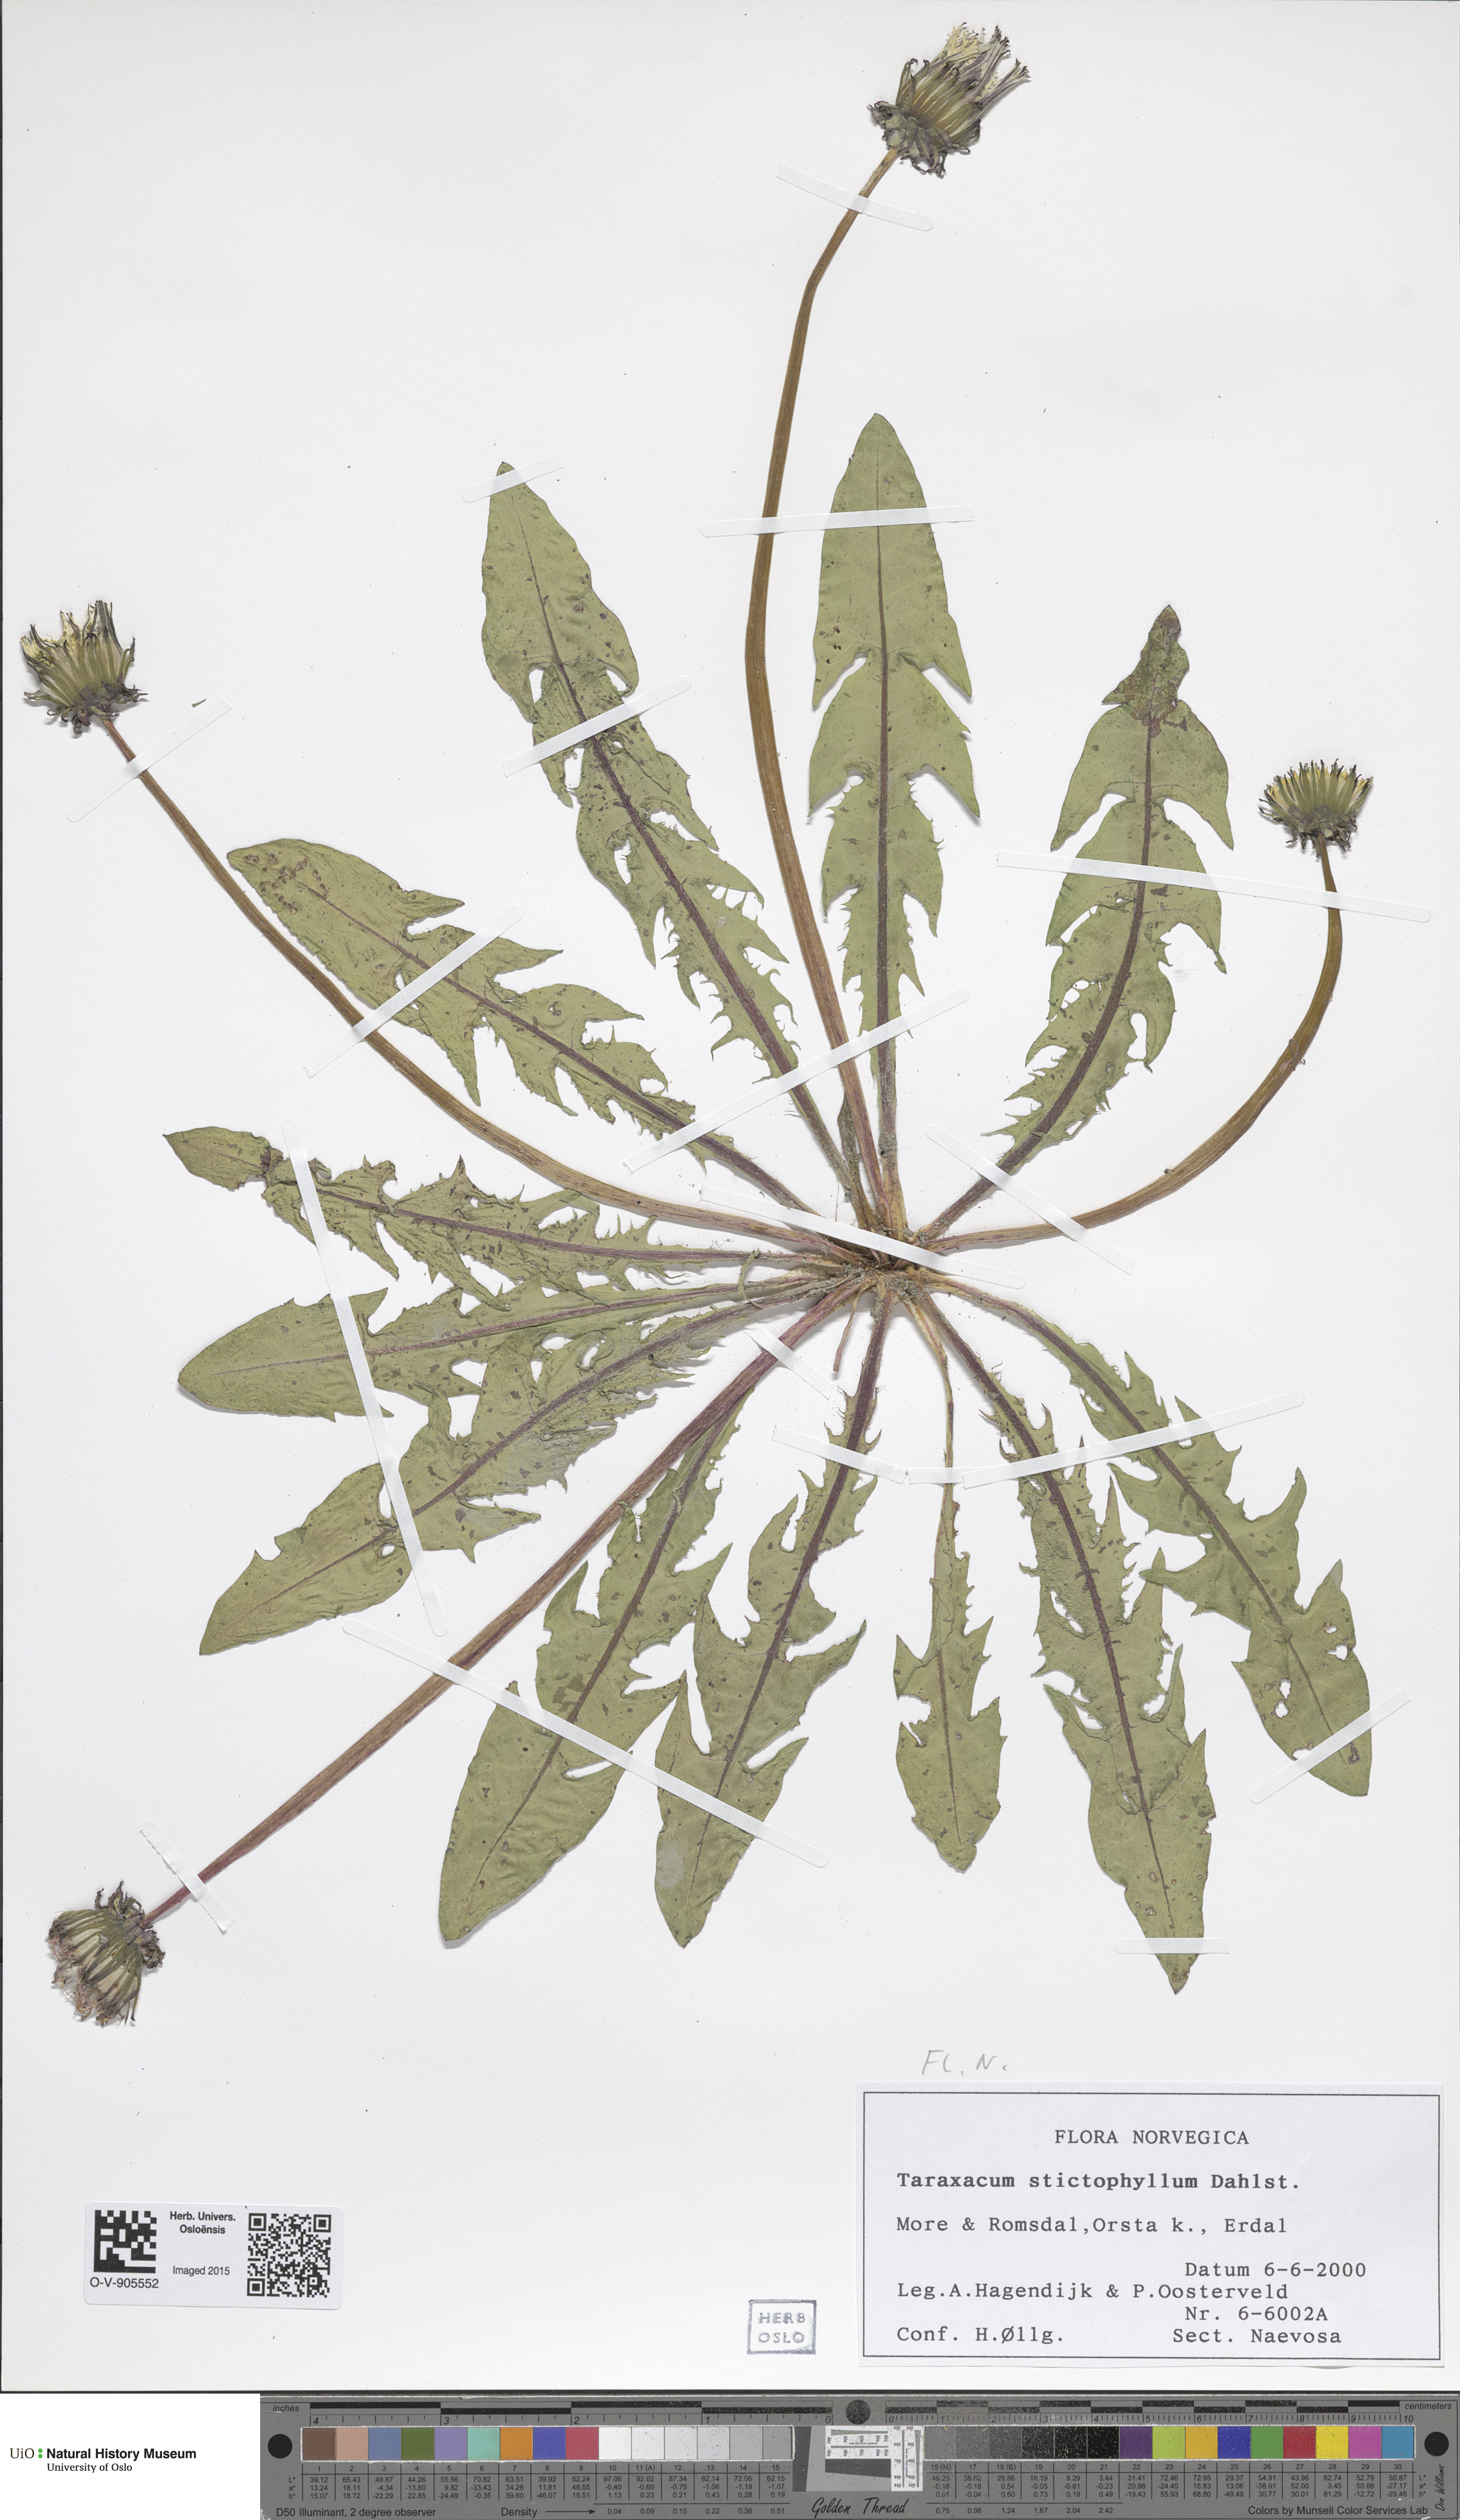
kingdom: Plantae
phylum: Tracheophyta
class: Magnoliopsida
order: Asterales
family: Asteraceae
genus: Taraxacum
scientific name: Taraxacum stictophyllum
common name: Stiff-leaved dandelion
